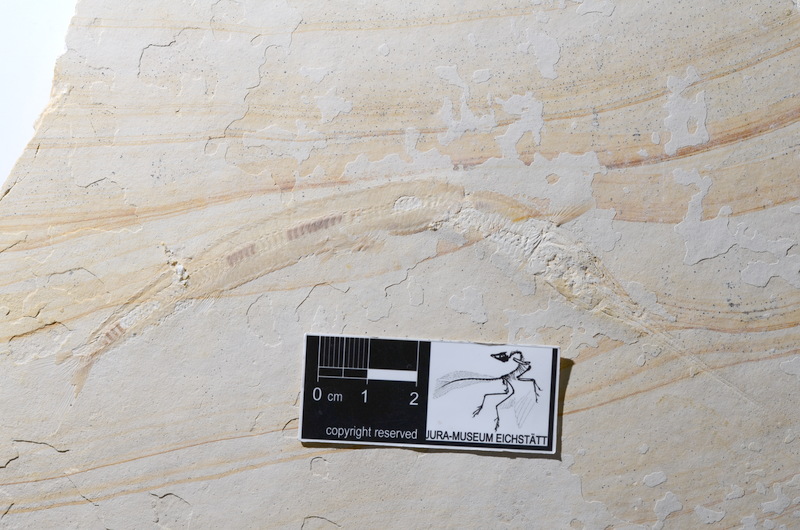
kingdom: Animalia
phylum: Chordata
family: Aspidorhynchidae
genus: Belonostomus
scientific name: Belonostomus tenuirostris
